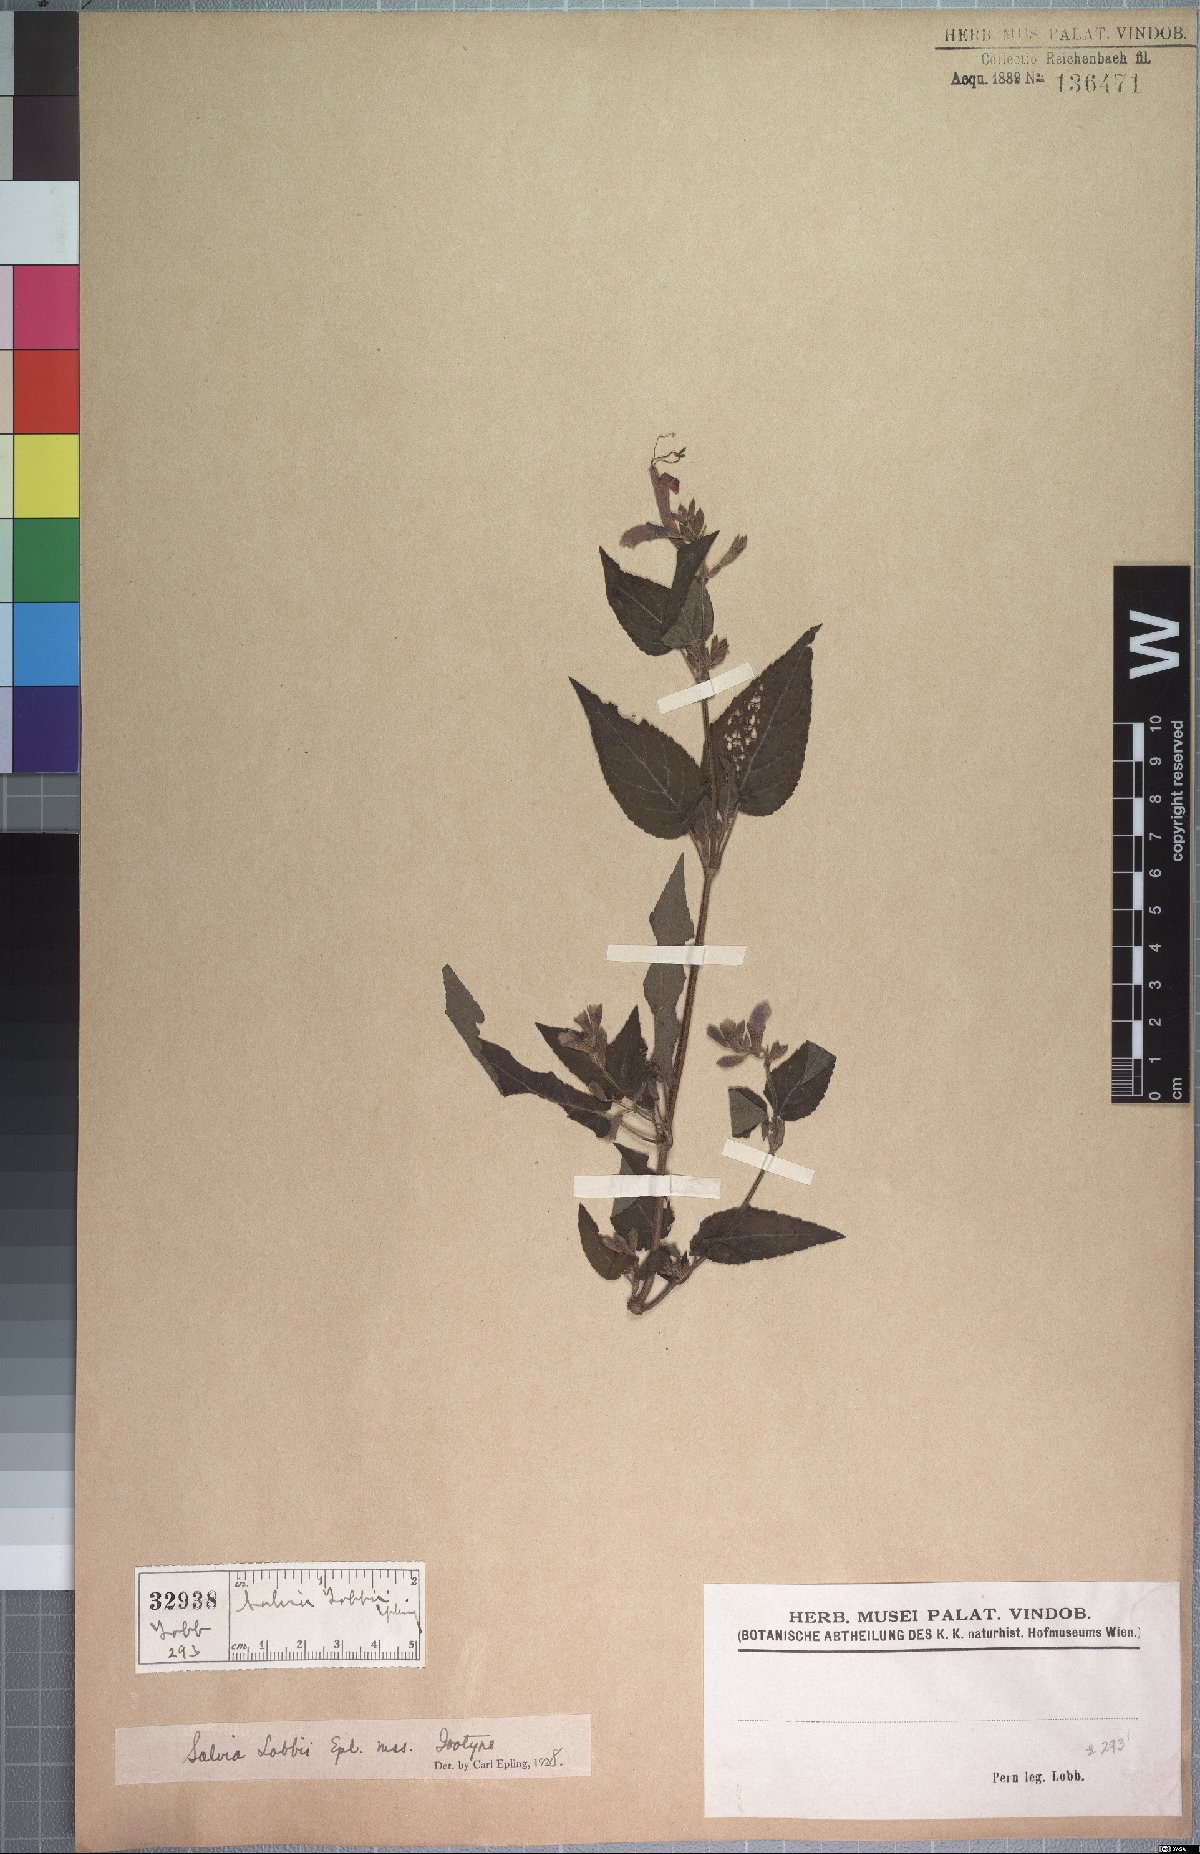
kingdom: Plantae
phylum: Tracheophyta
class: Magnoliopsida
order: Lamiales
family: Lamiaceae
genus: Salvia
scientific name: Salvia lobbii
